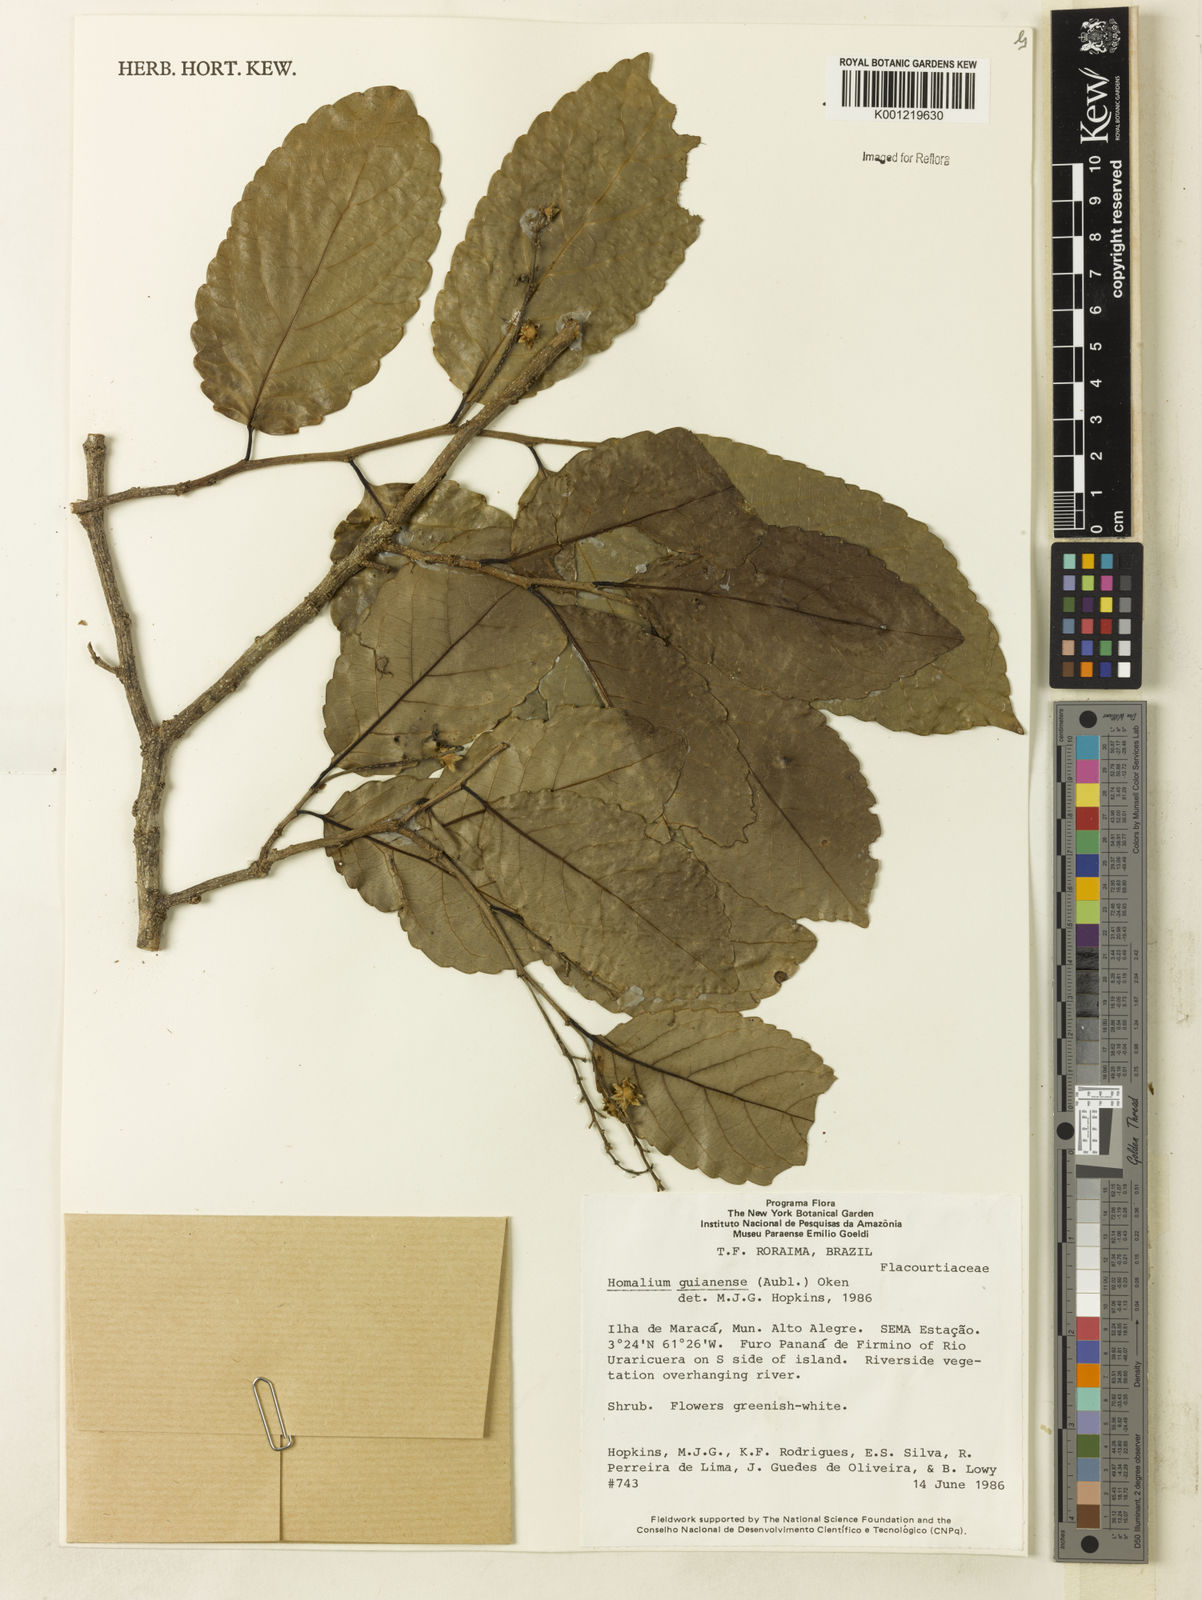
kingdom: Plantae
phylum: Tracheophyta
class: Magnoliopsida
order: Malpighiales
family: Salicaceae
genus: Homalium
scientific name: Homalium guianense
